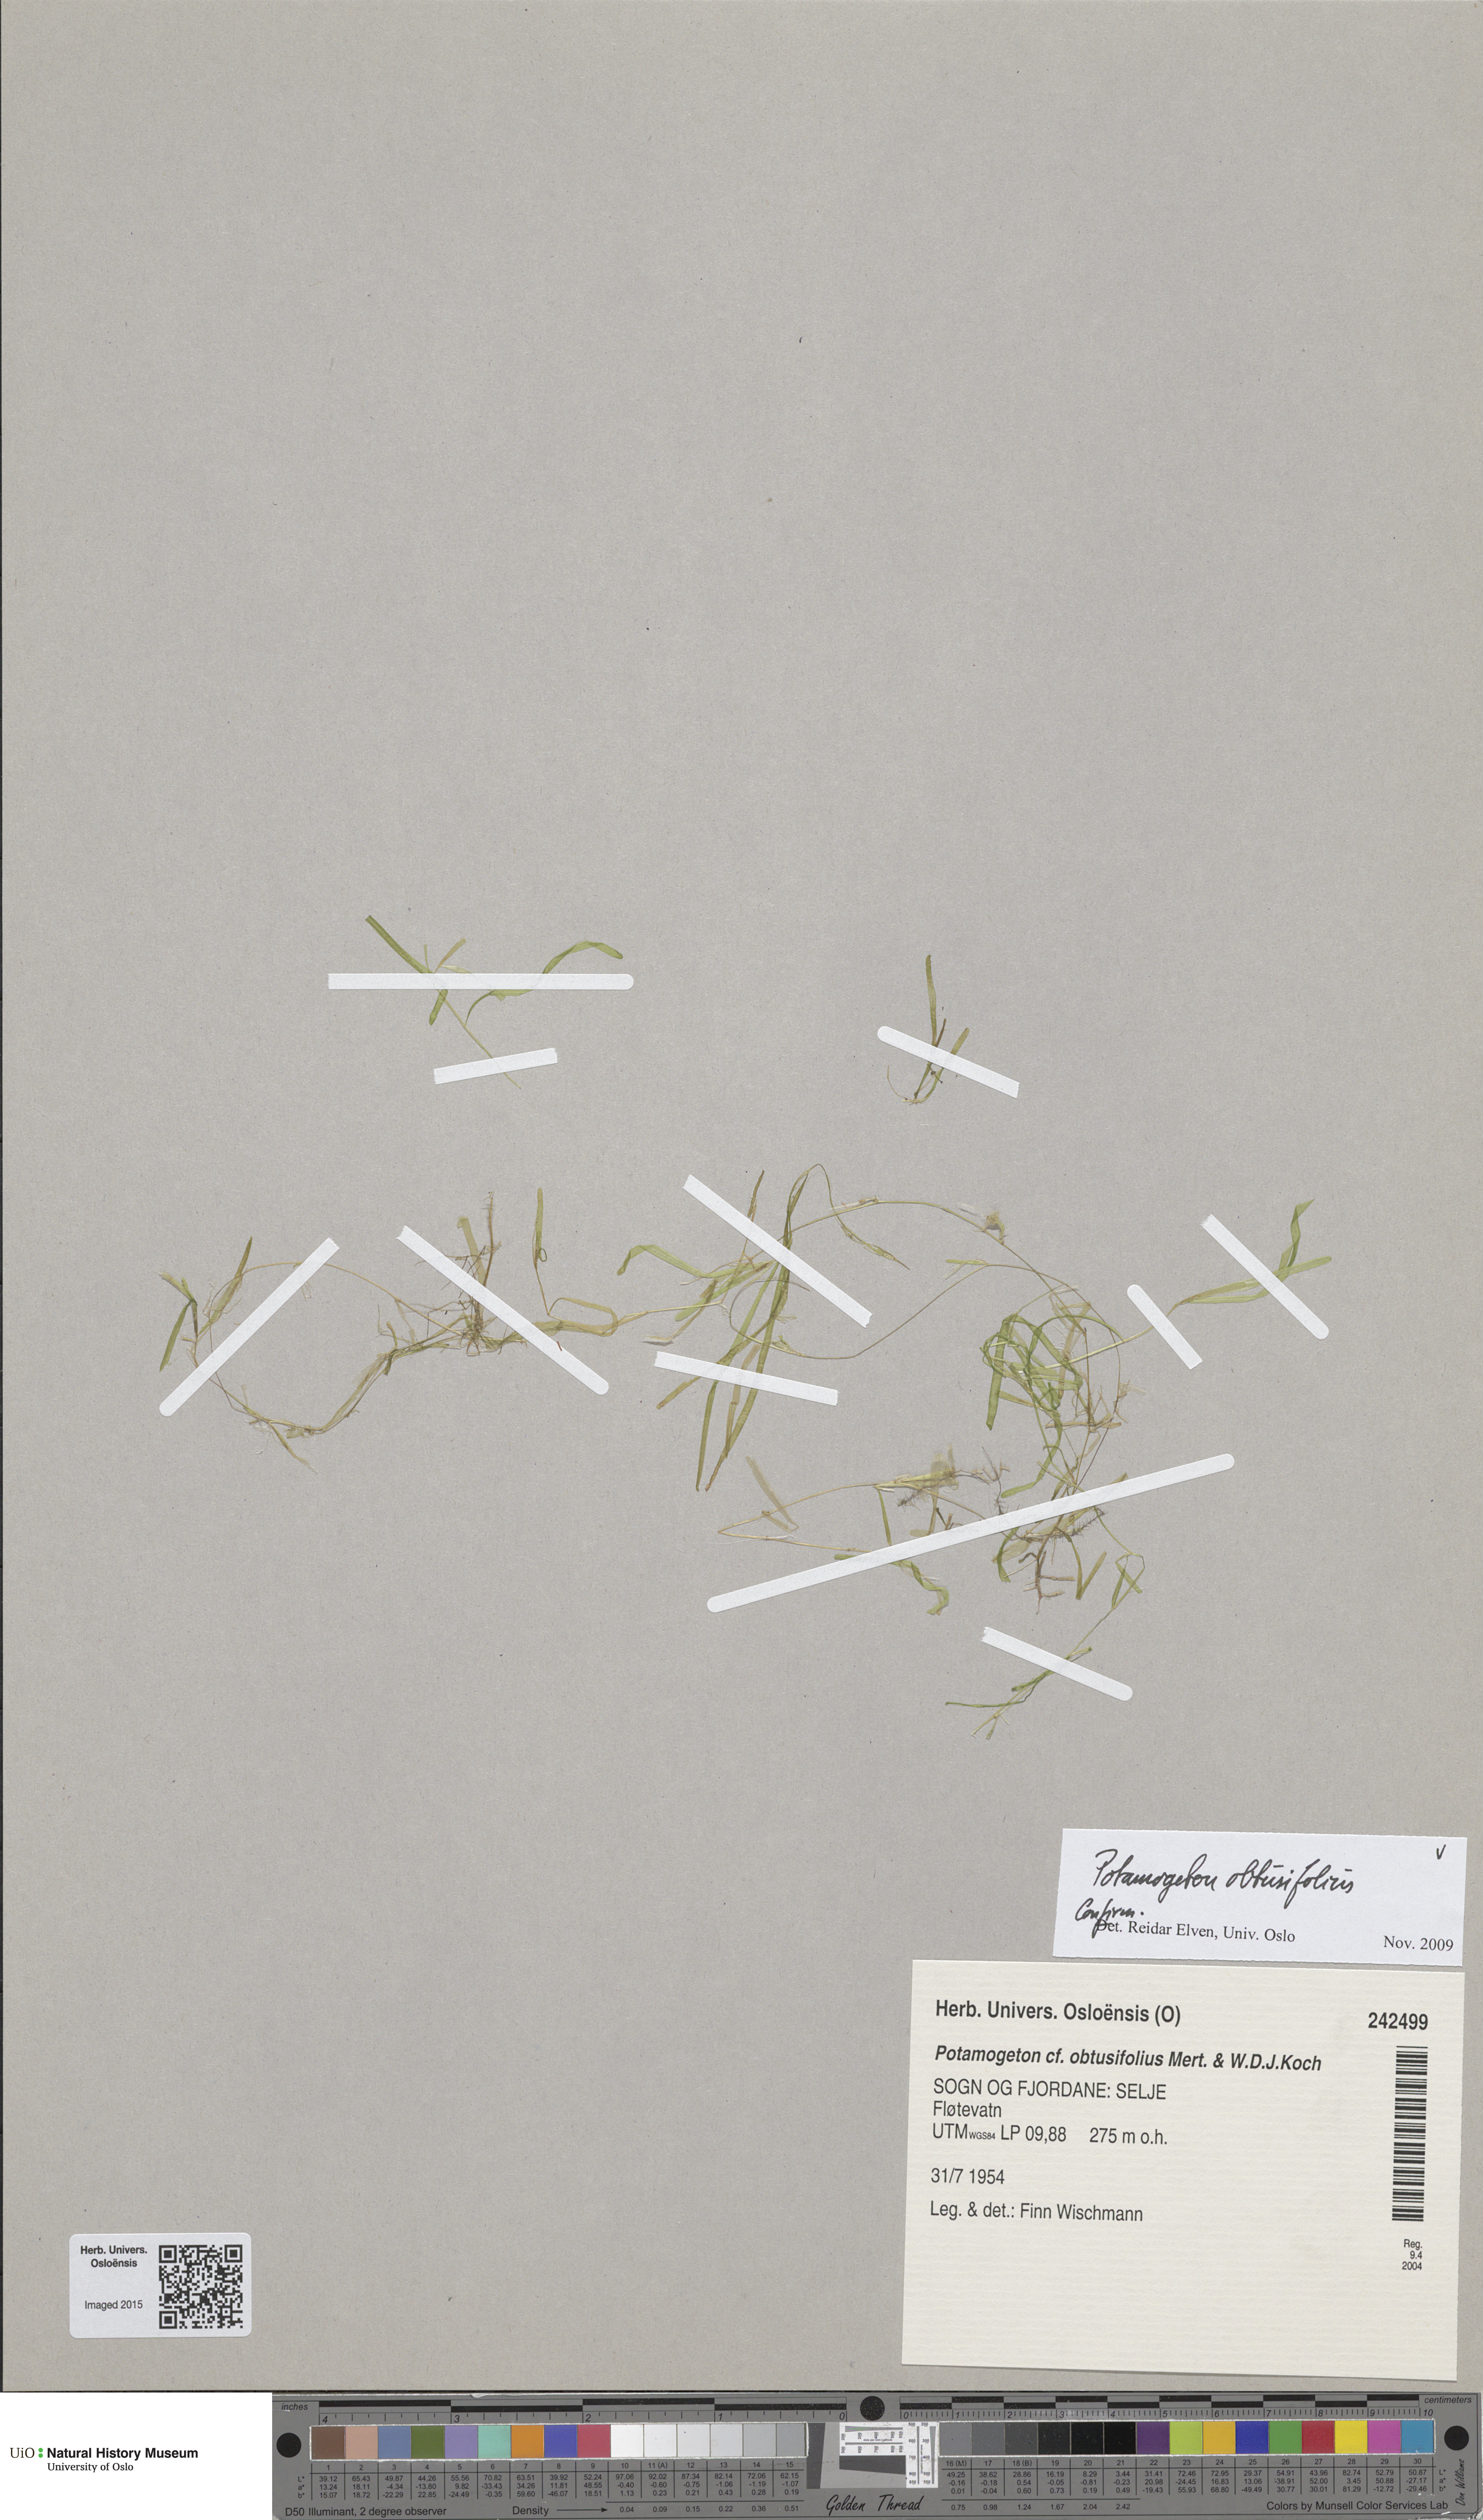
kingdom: Plantae
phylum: Tracheophyta
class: Liliopsida
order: Alismatales
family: Potamogetonaceae
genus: Potamogeton
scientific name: Potamogeton berchtoldii
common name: Small pondweed
